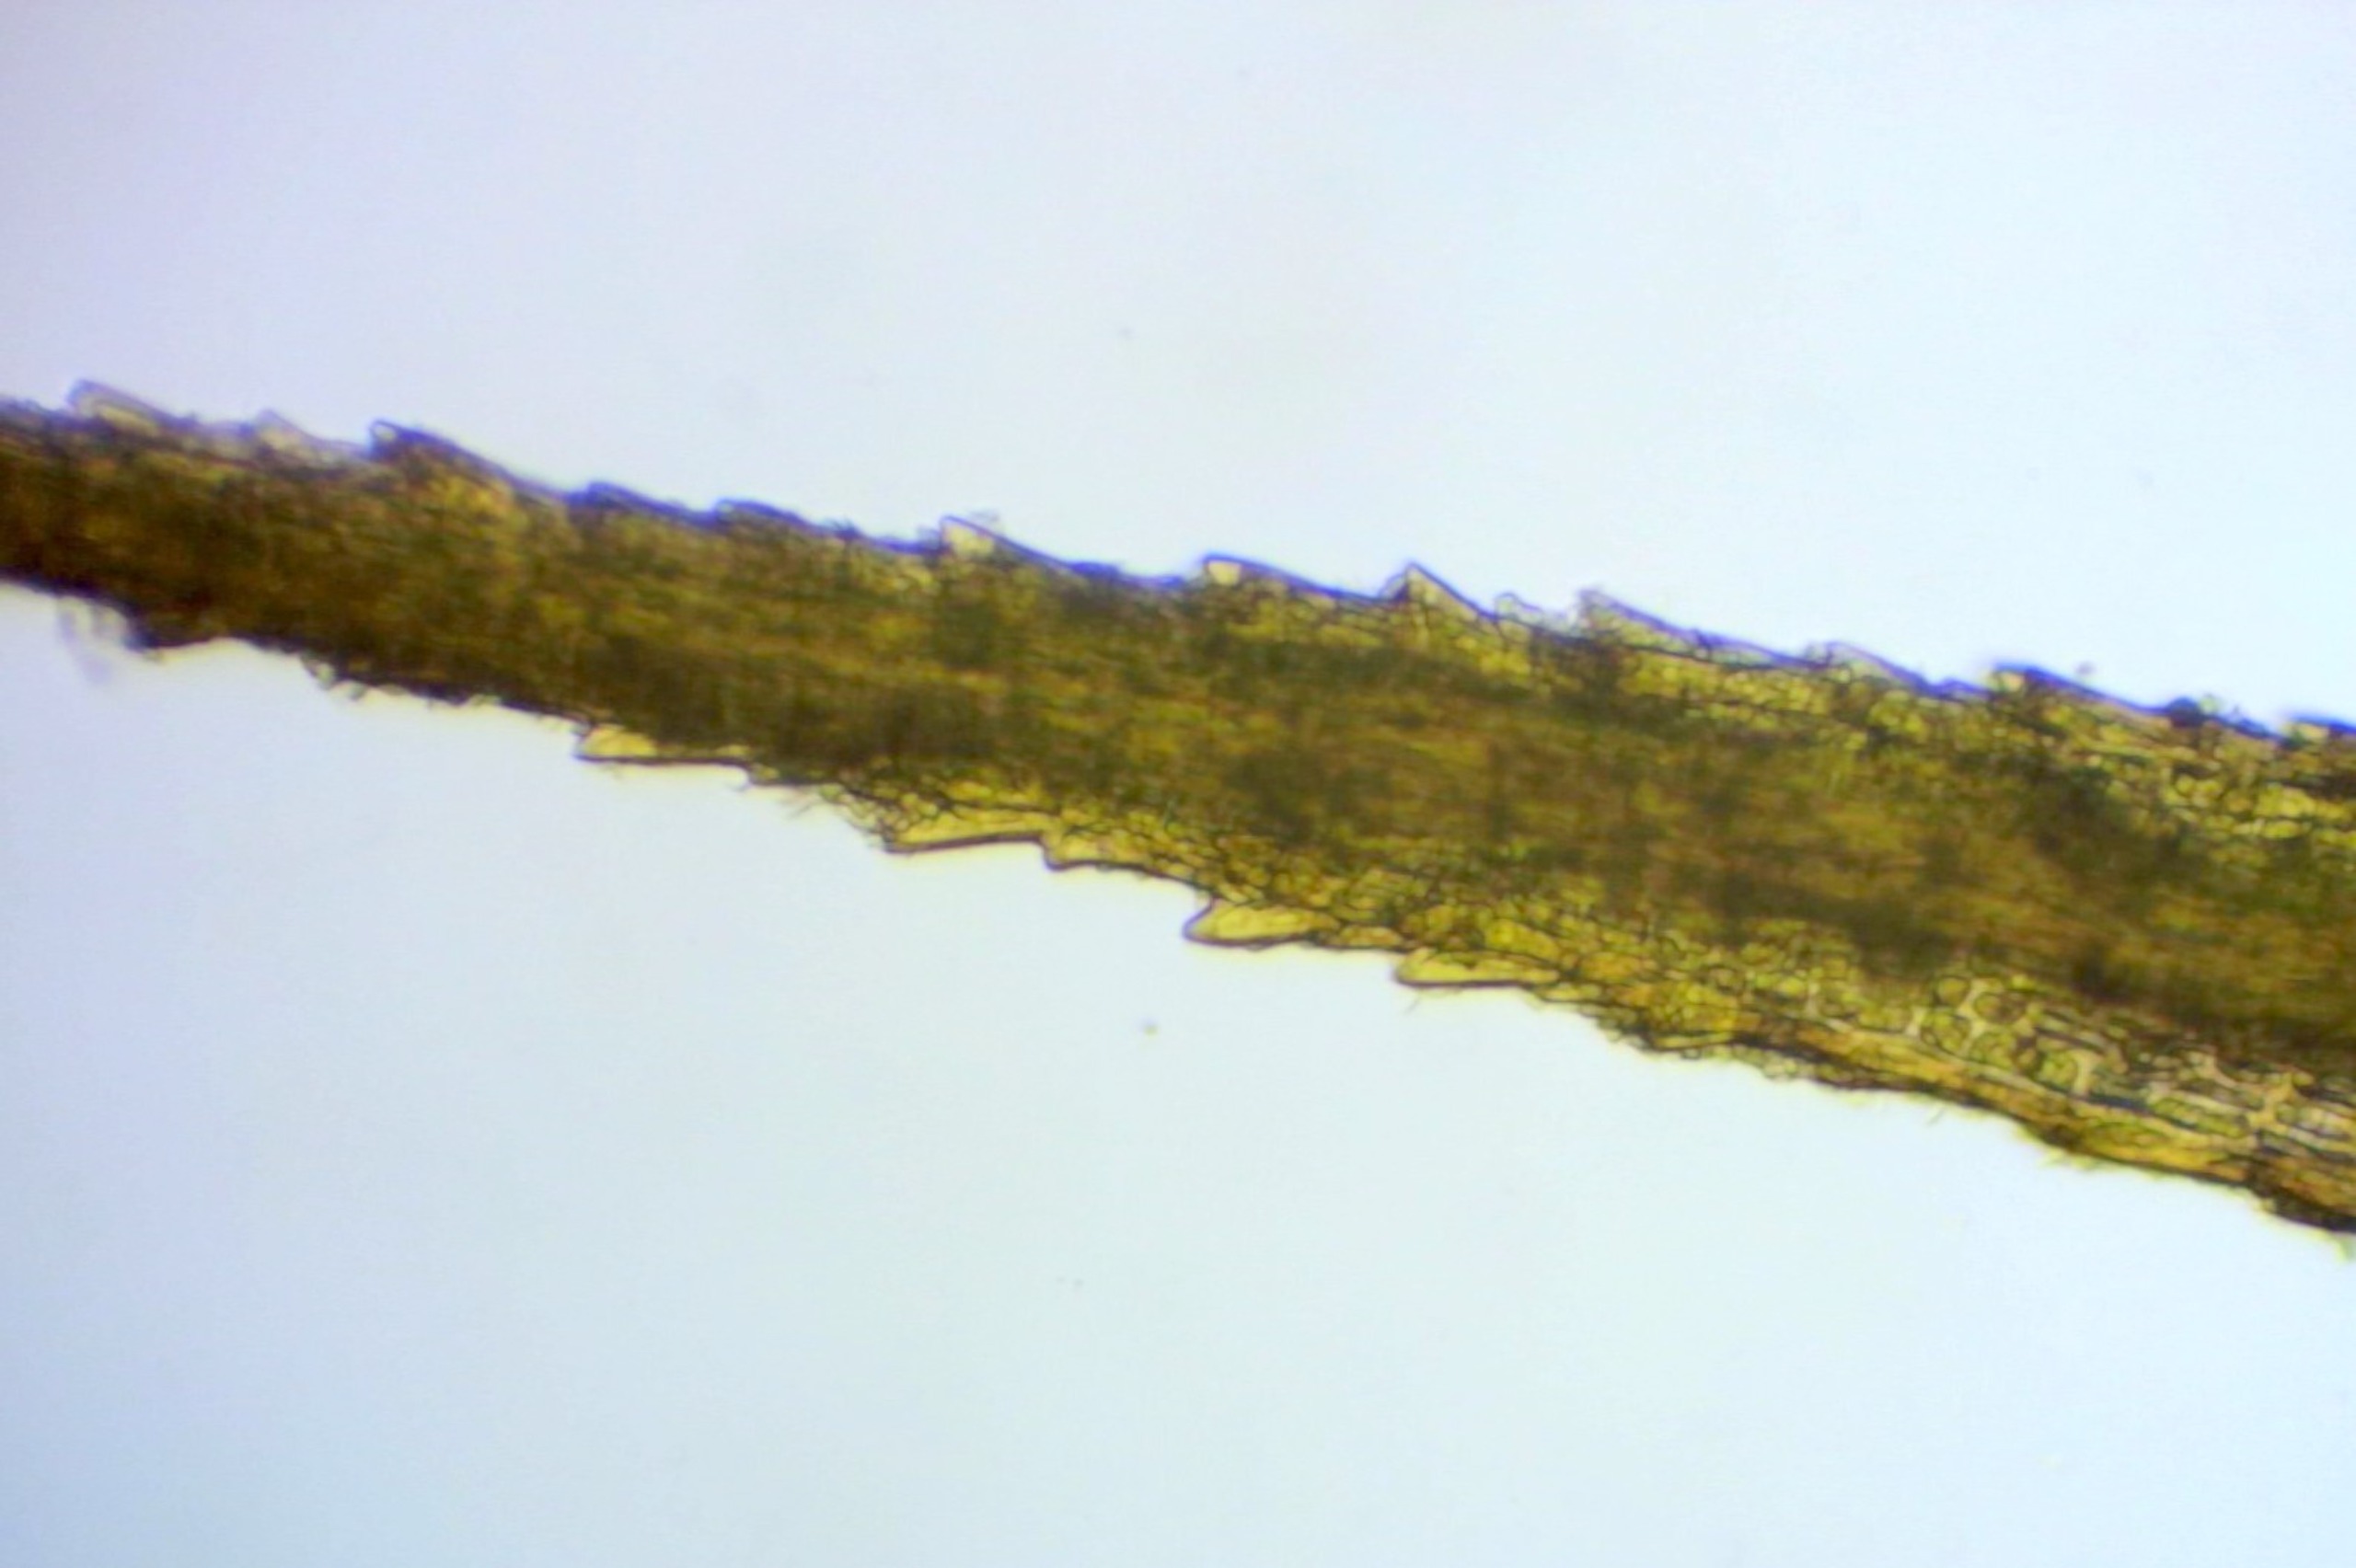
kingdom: Plantae
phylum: Bryophyta
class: Bryopsida
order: Bartramiales
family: Bartramiaceae
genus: Bartramia
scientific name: Bartramia pomiformis
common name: Gulgrøn kuglekapsel
